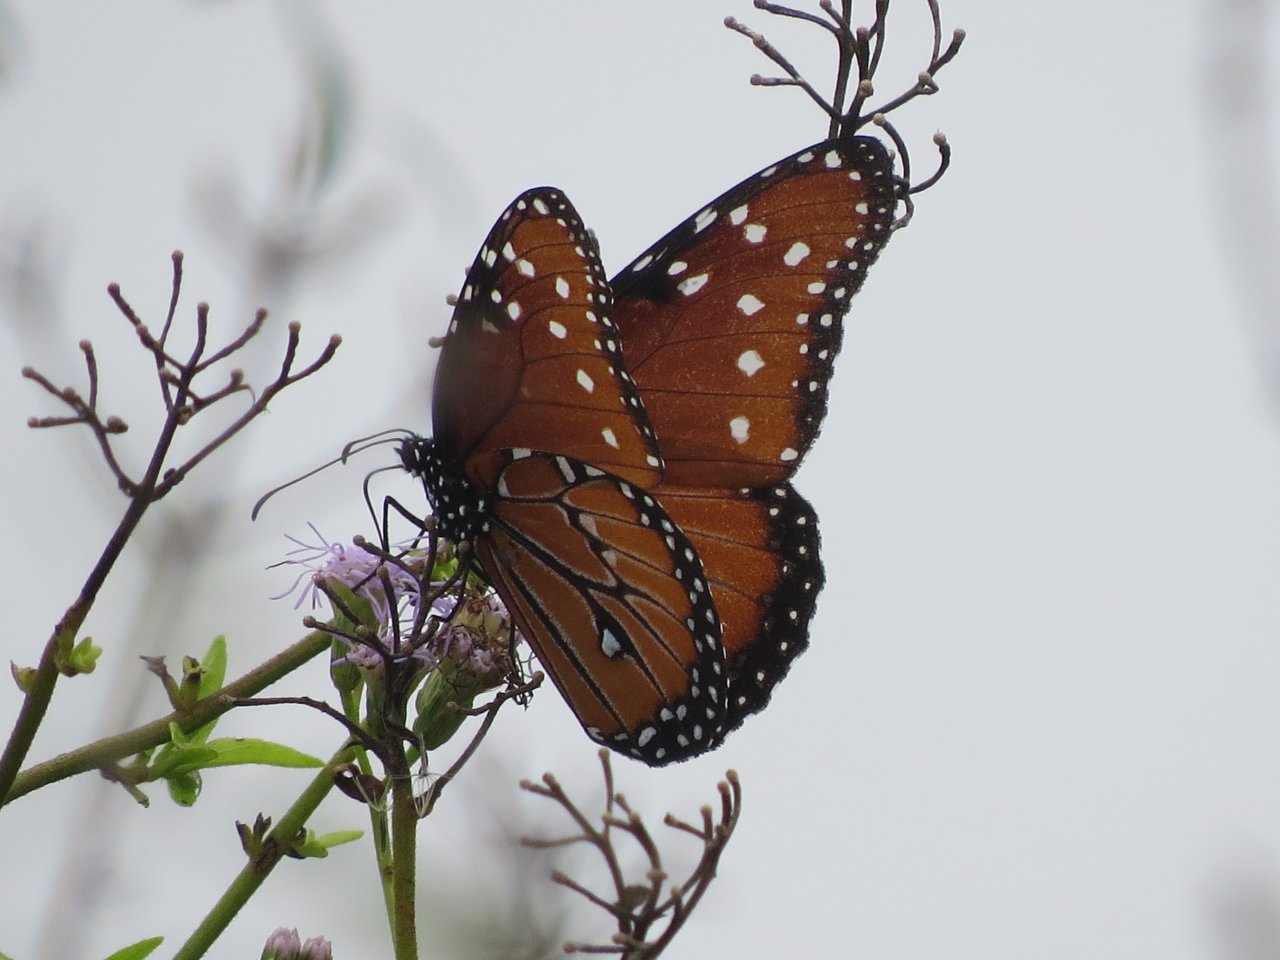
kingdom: Animalia
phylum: Arthropoda
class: Insecta
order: Lepidoptera
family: Nymphalidae
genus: Danaus
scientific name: Danaus gilippus
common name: Queen
